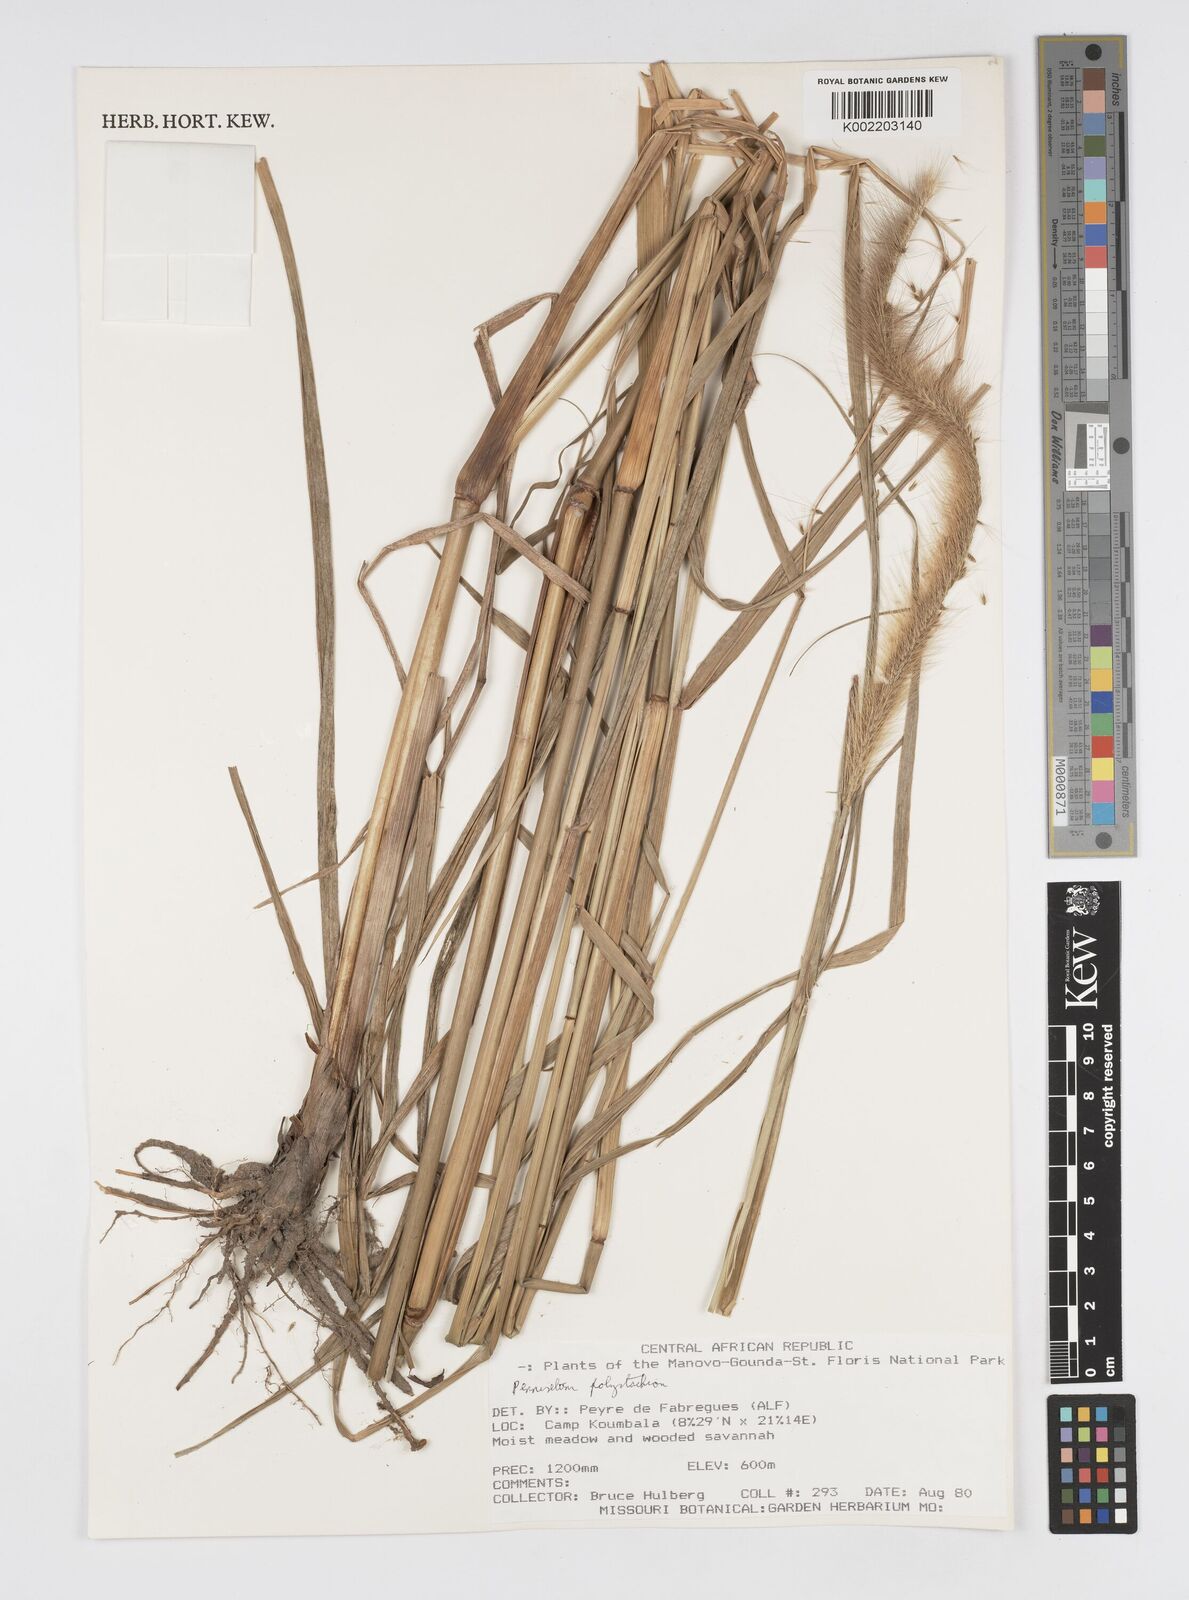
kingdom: Plantae
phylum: Tracheophyta
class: Liliopsida
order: Poales
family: Poaceae
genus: Setaria
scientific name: Setaria parviflora
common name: Knotroot bristle-grass
